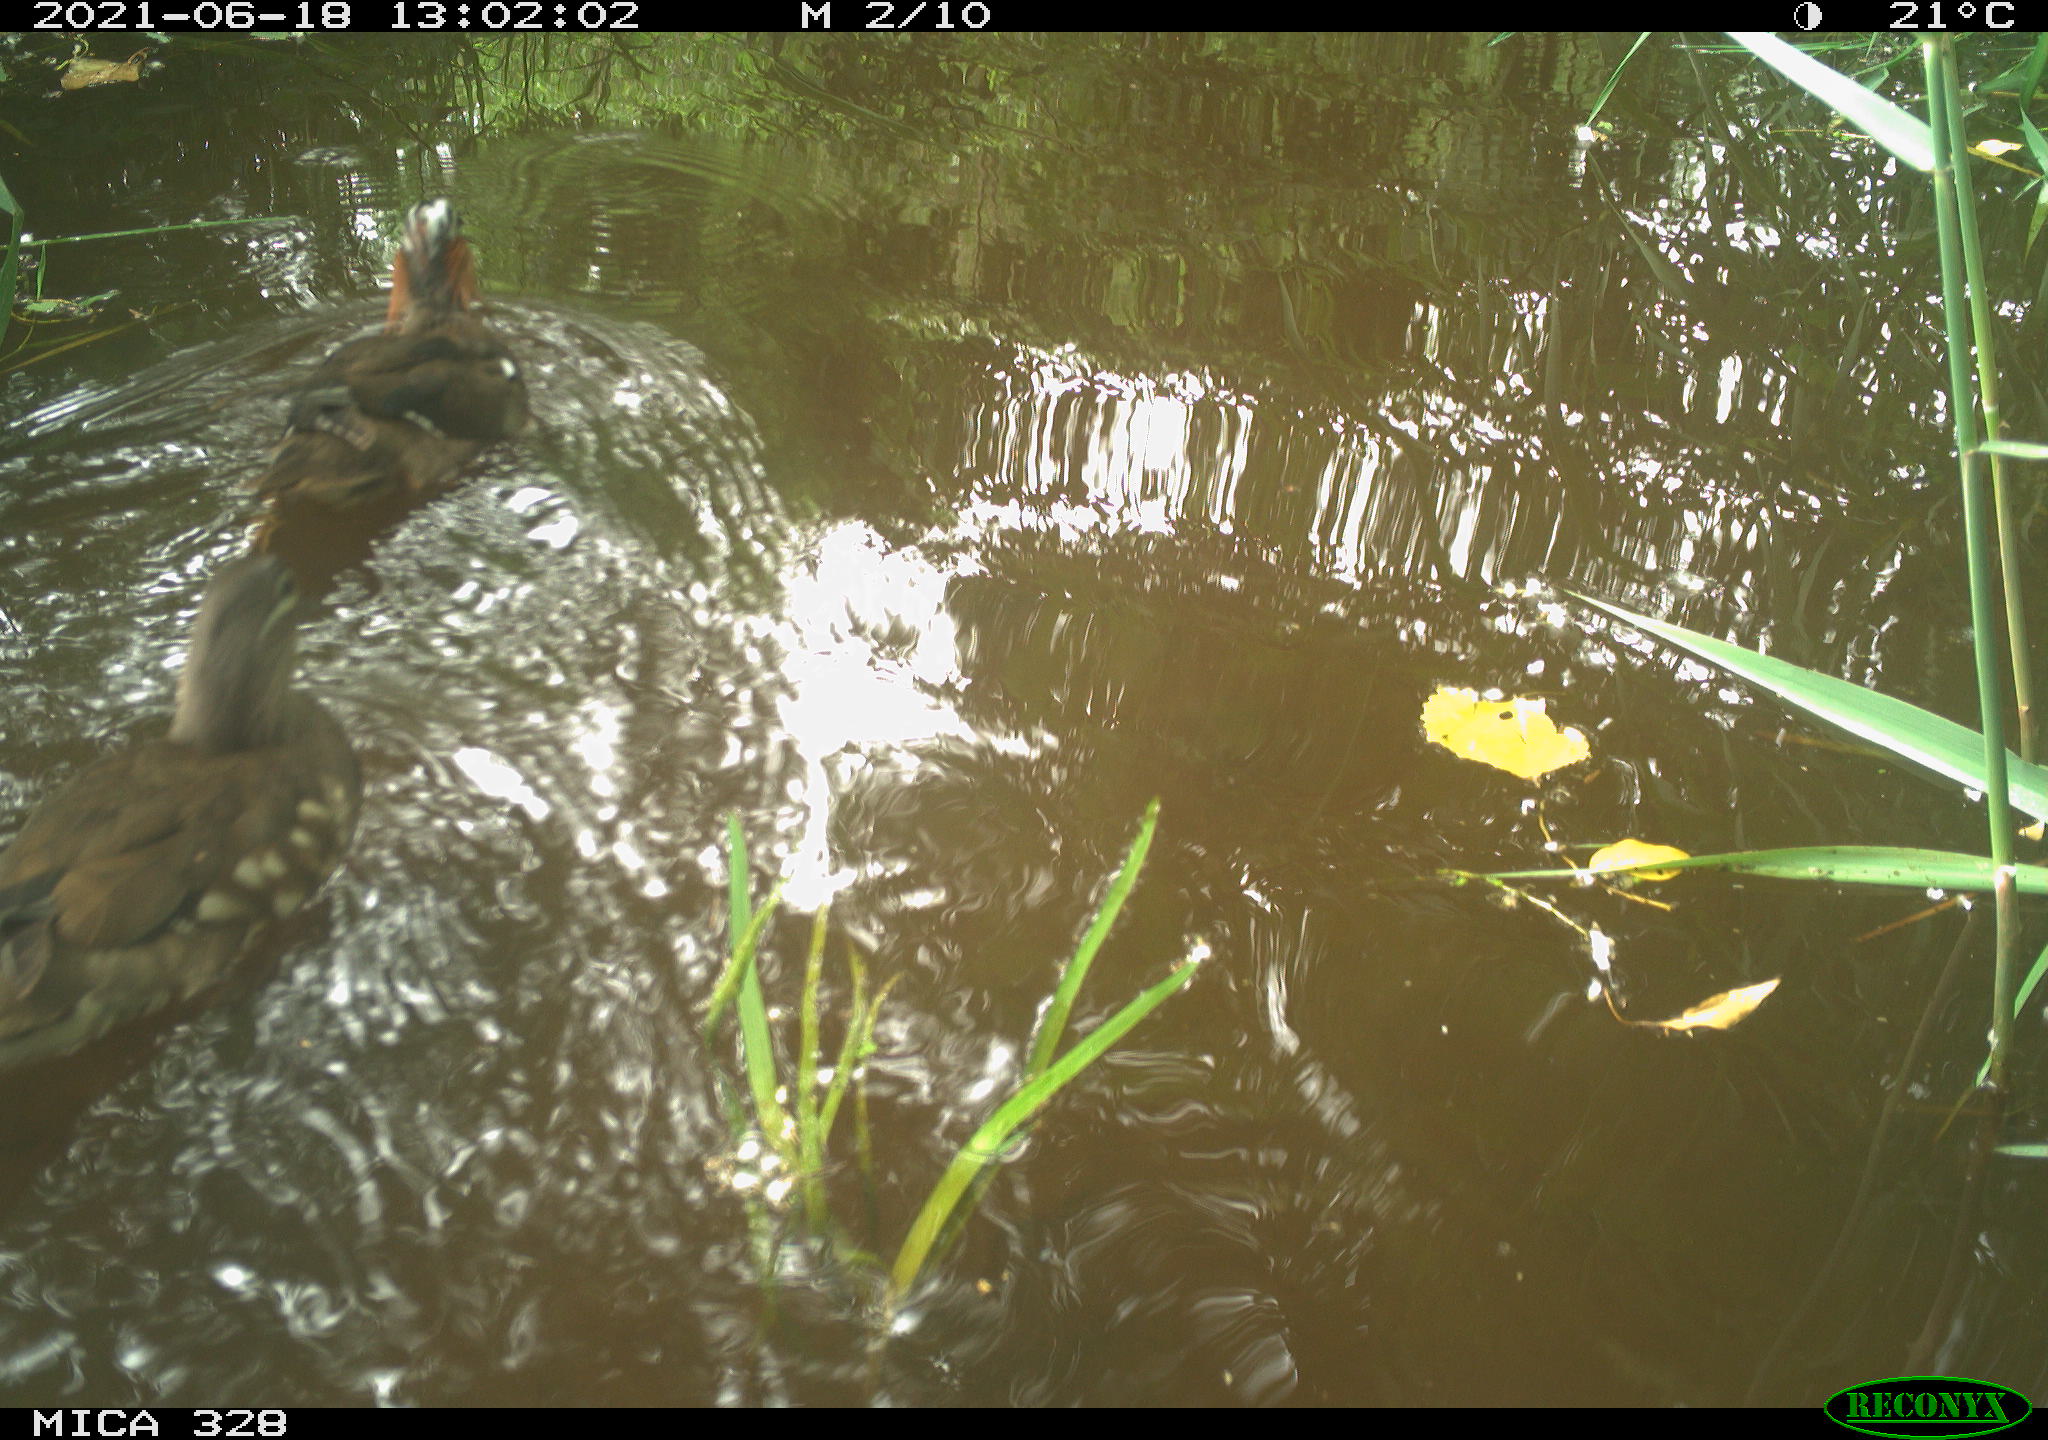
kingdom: Animalia
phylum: Chordata
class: Aves
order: Anseriformes
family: Anatidae
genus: Aix
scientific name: Aix galericulata
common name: Mandarin duck
